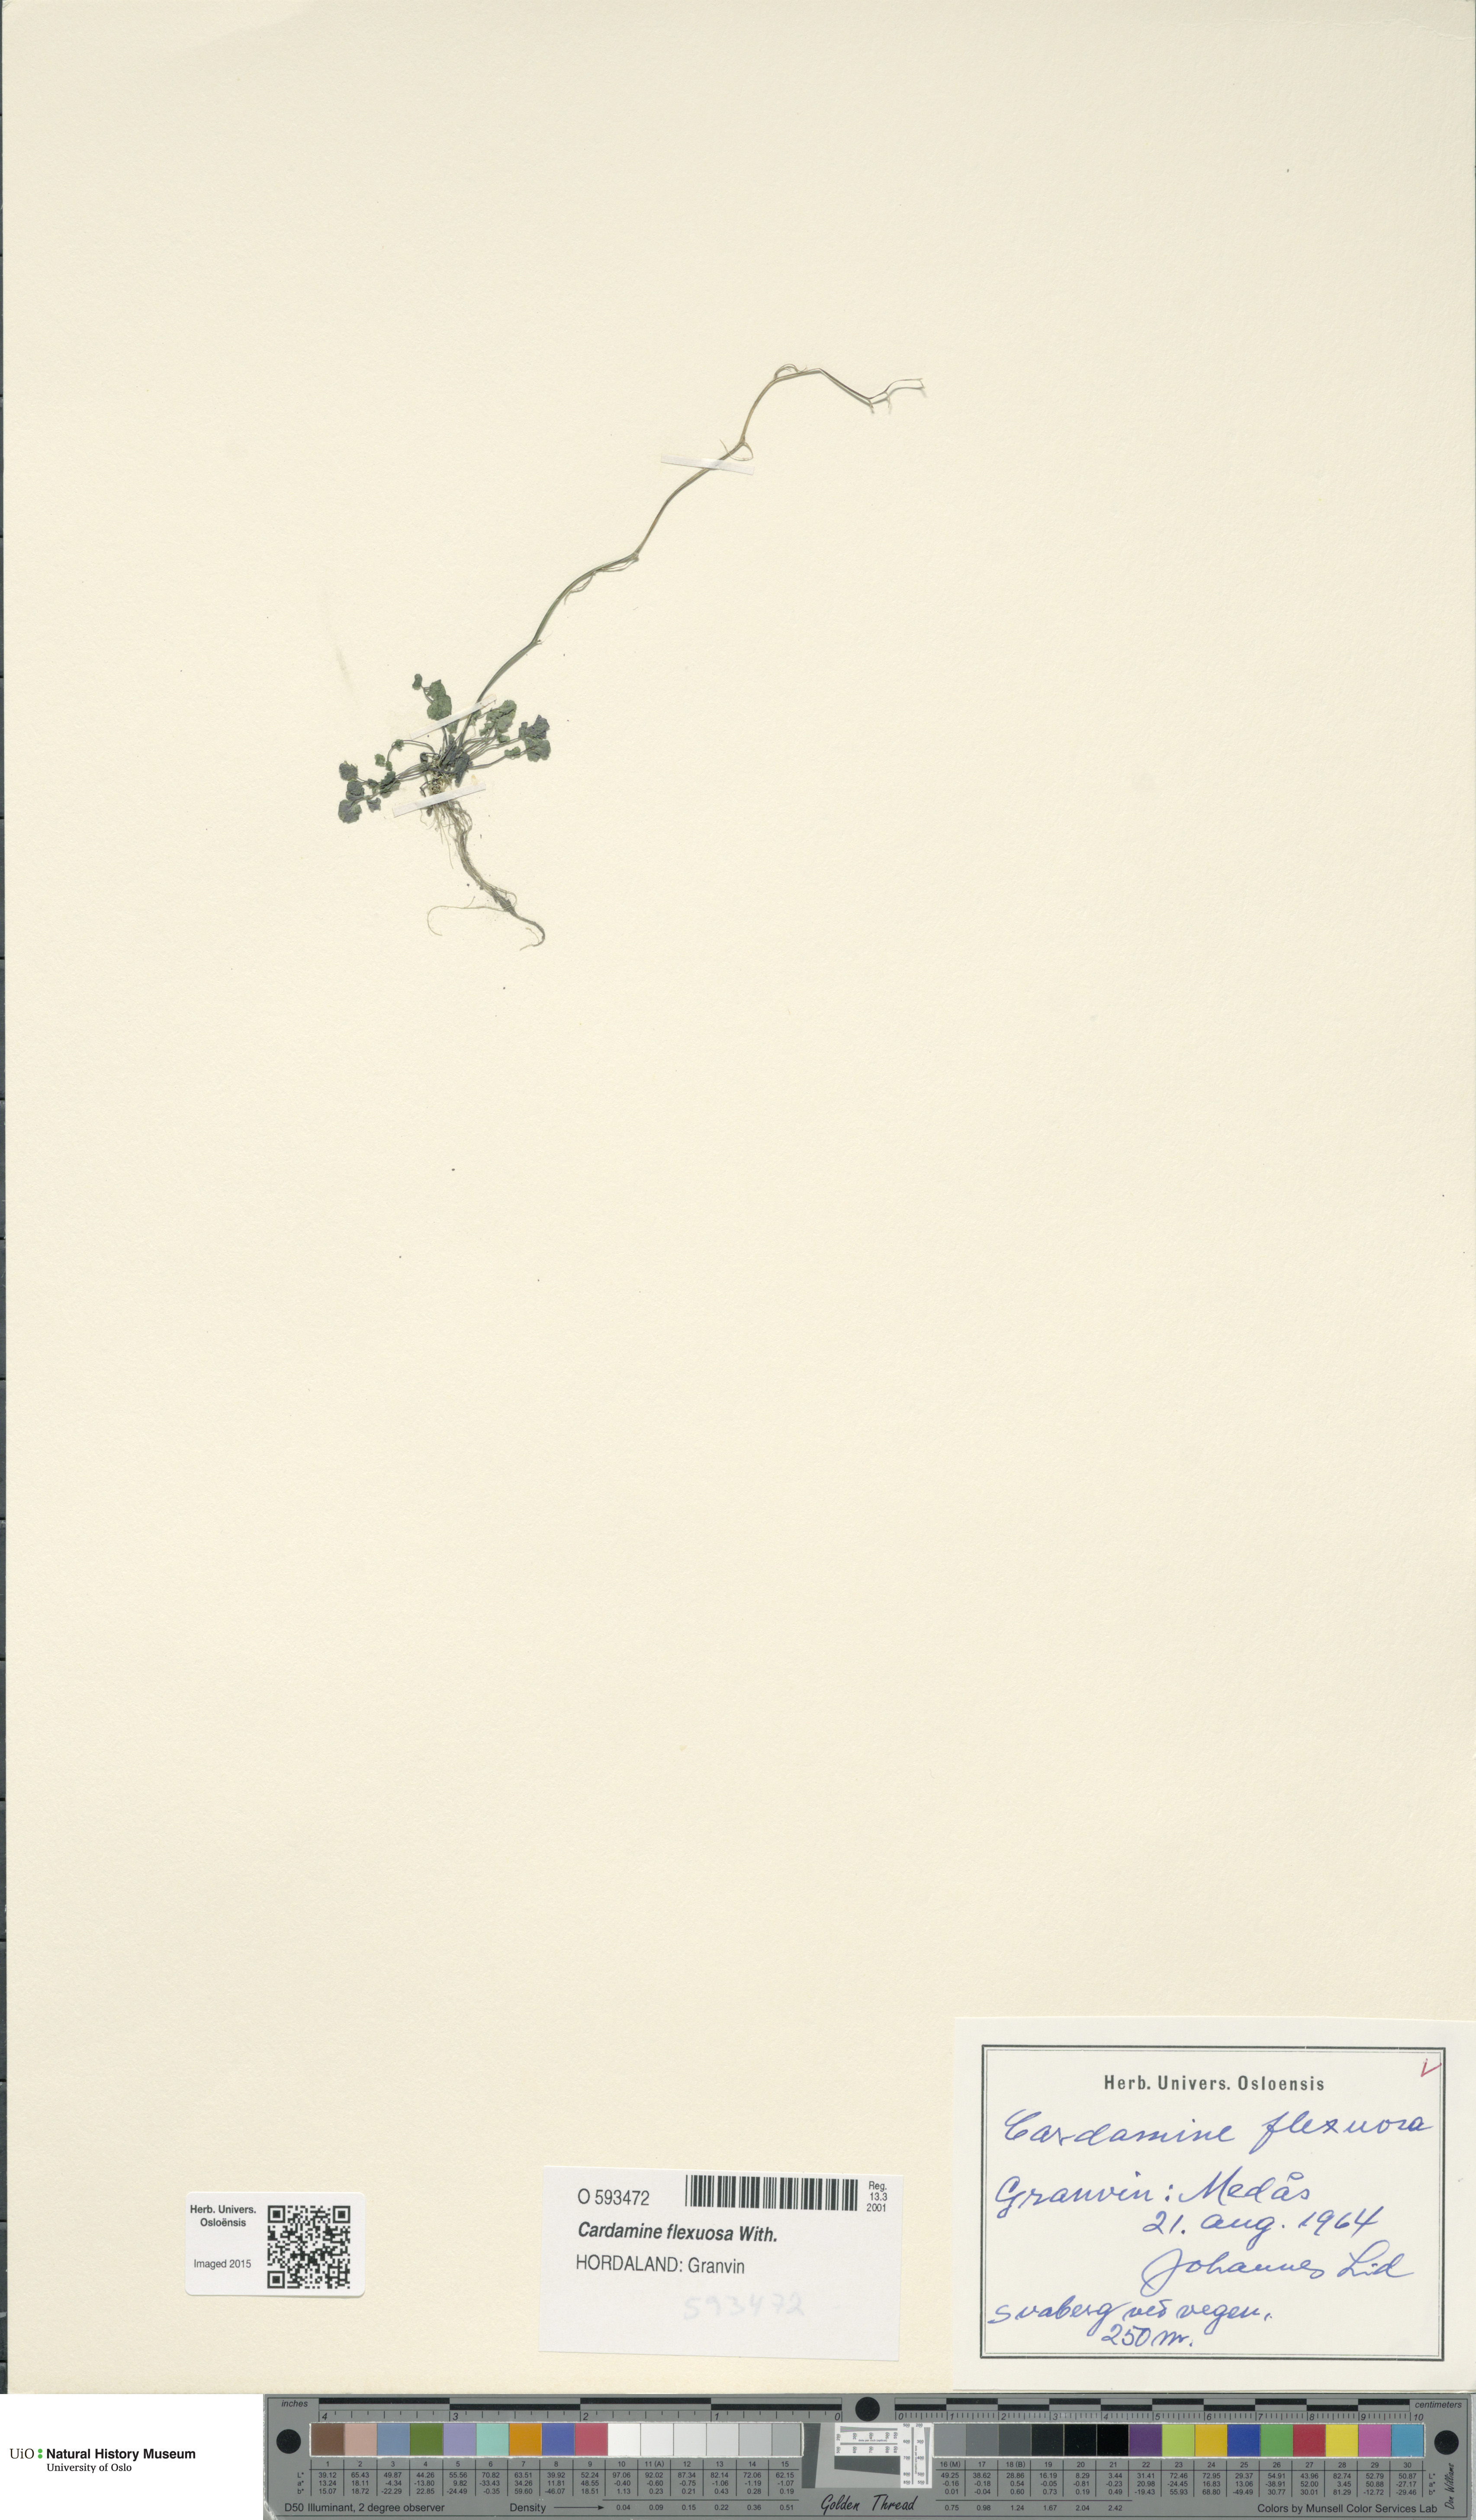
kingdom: Plantae
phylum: Tracheophyta
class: Magnoliopsida
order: Brassicales
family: Brassicaceae
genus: Cardamine
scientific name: Cardamine flexuosa
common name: Woodland bittercress
